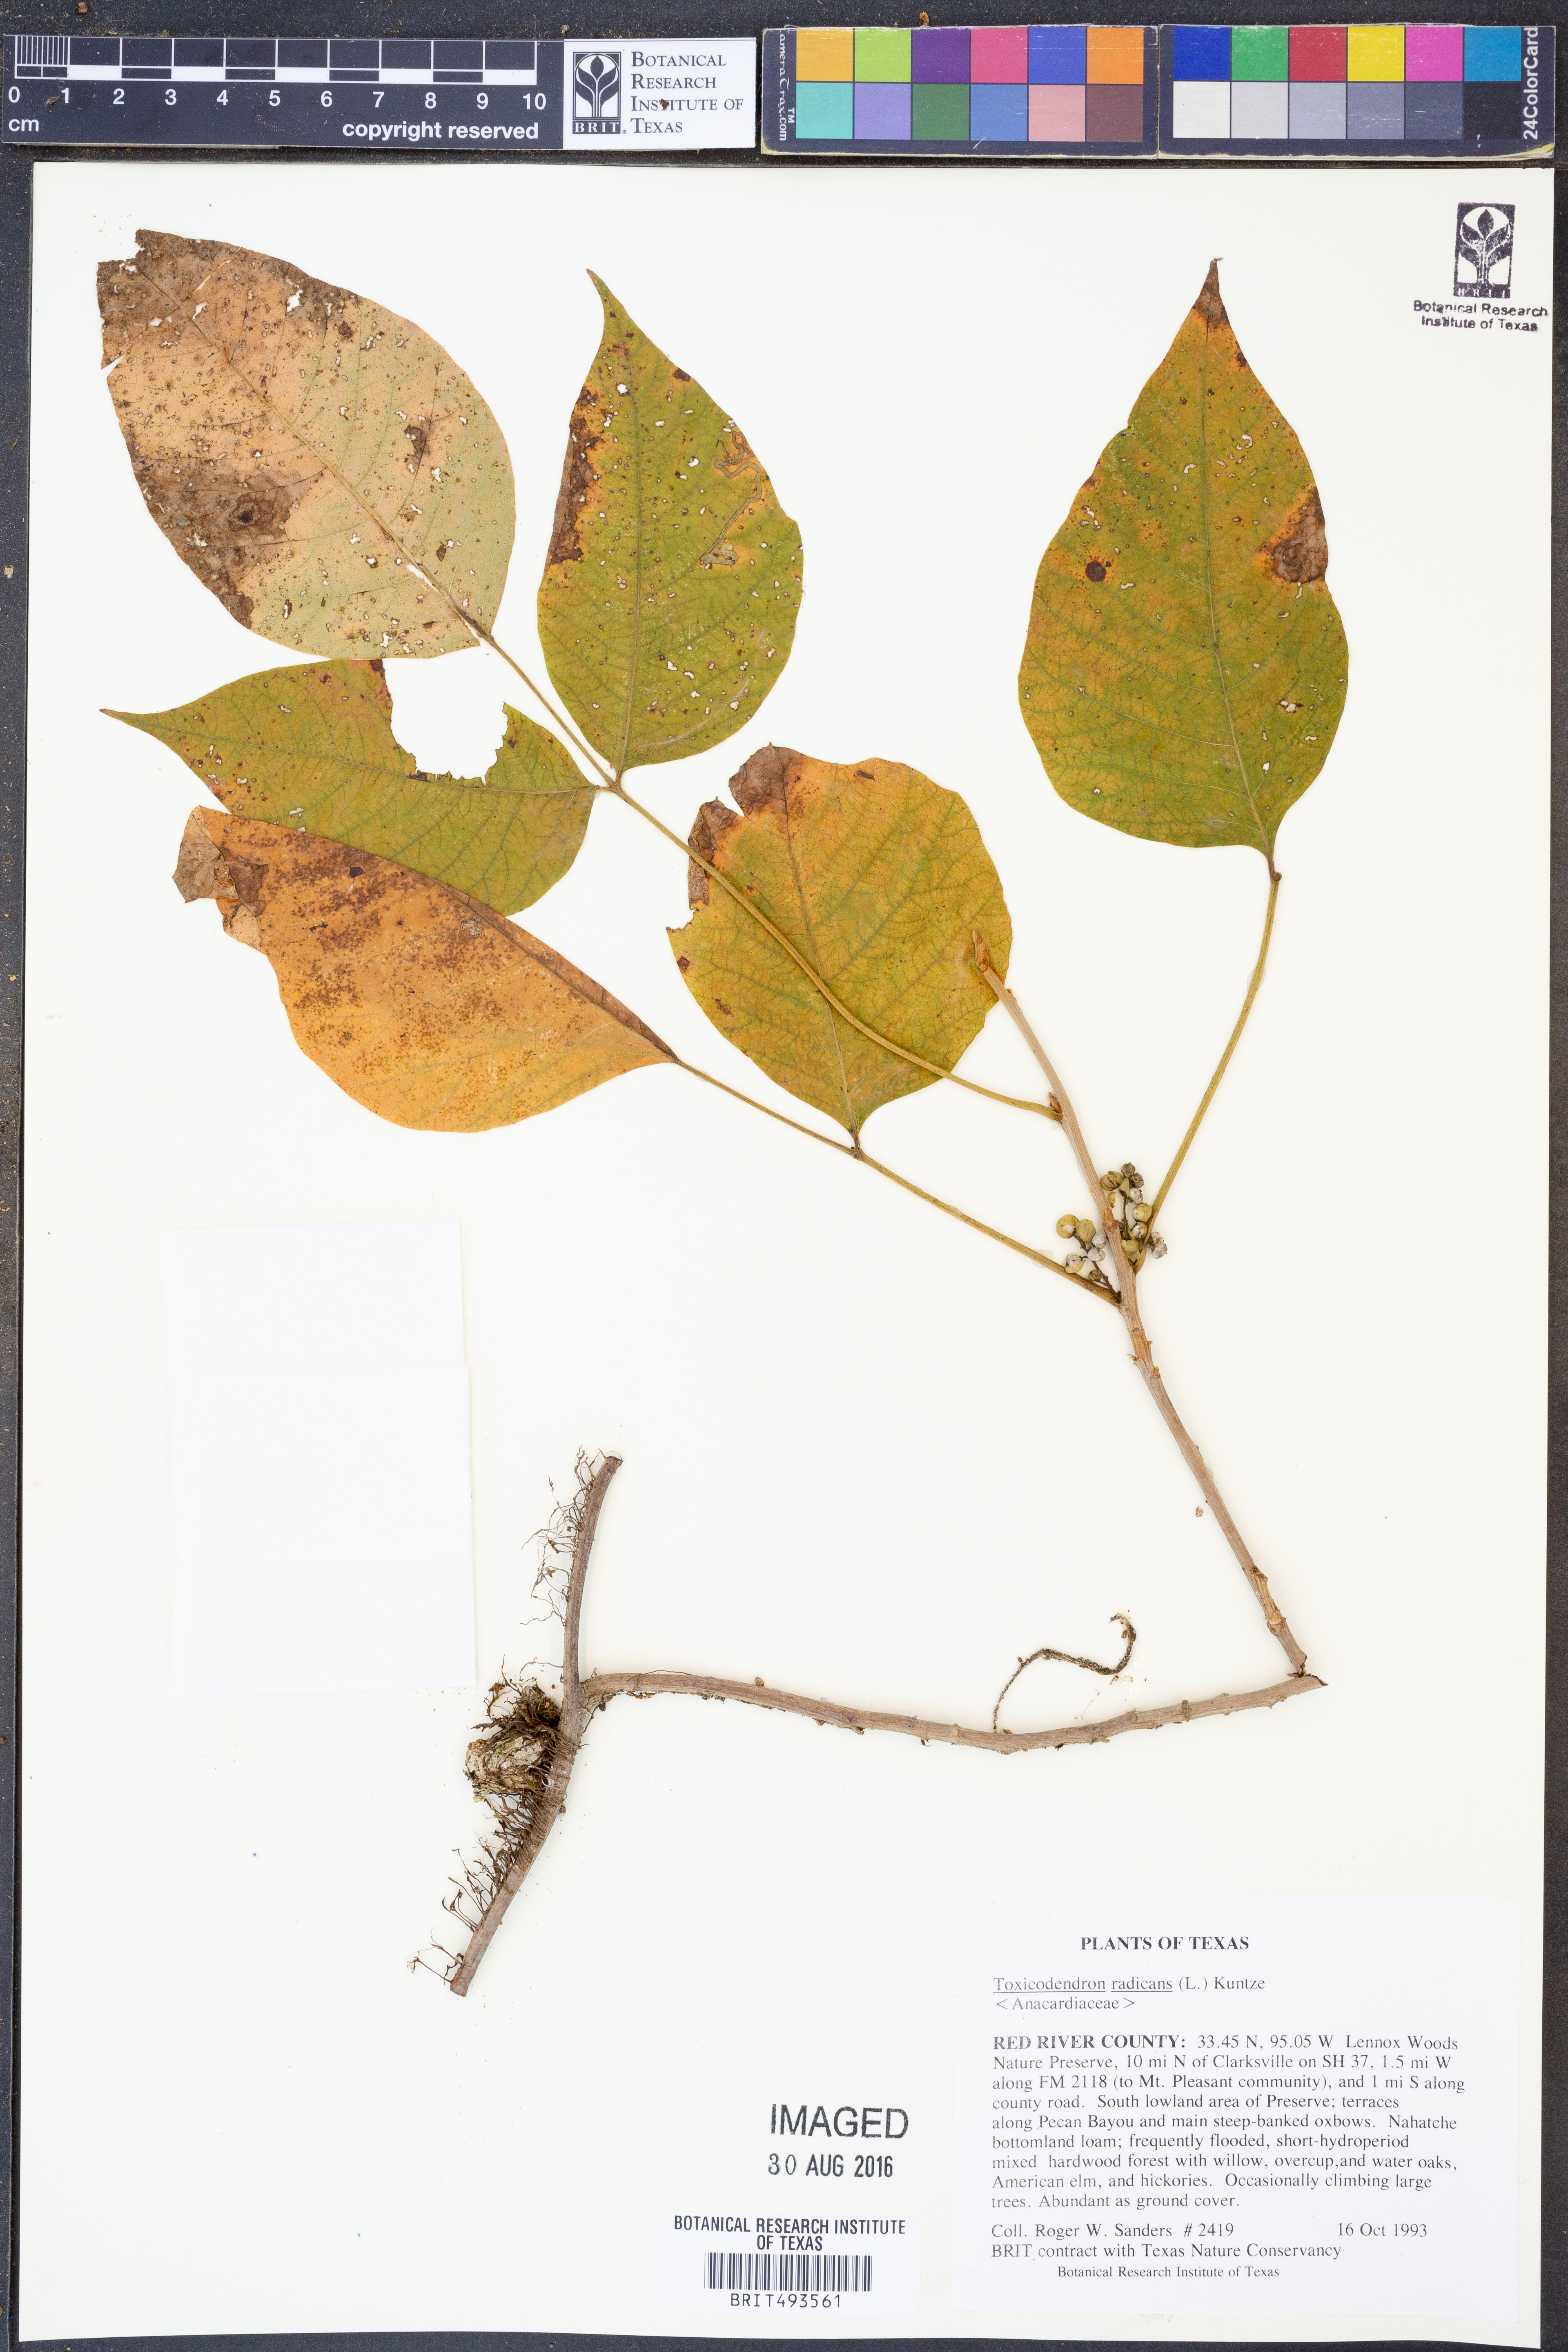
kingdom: Plantae
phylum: Tracheophyta
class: Magnoliopsida
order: Sapindales
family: Anacardiaceae
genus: Toxicodendron
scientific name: Toxicodendron radicans
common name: Poison ivy
